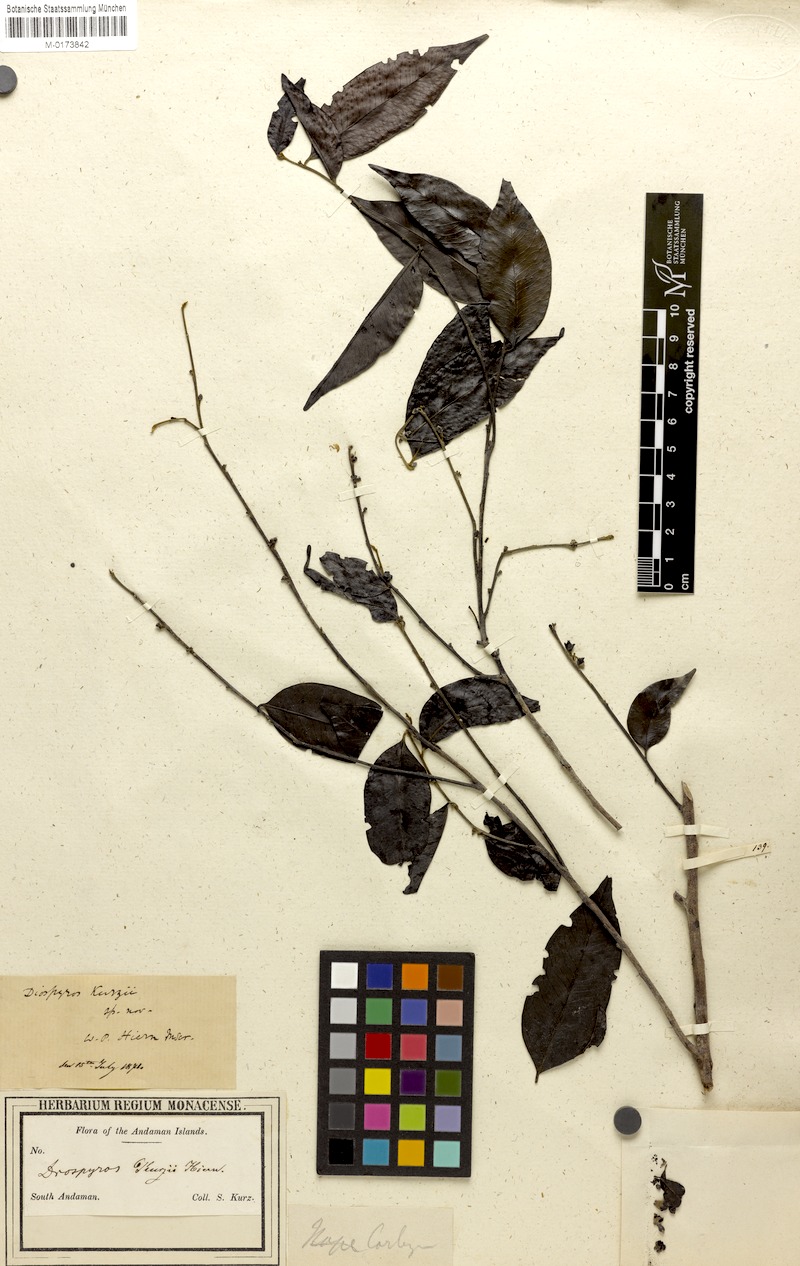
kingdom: Plantae
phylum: Tracheophyta
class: Magnoliopsida
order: Ericales
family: Ebenaceae
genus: Diospyros
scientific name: Diospyros kurzii
